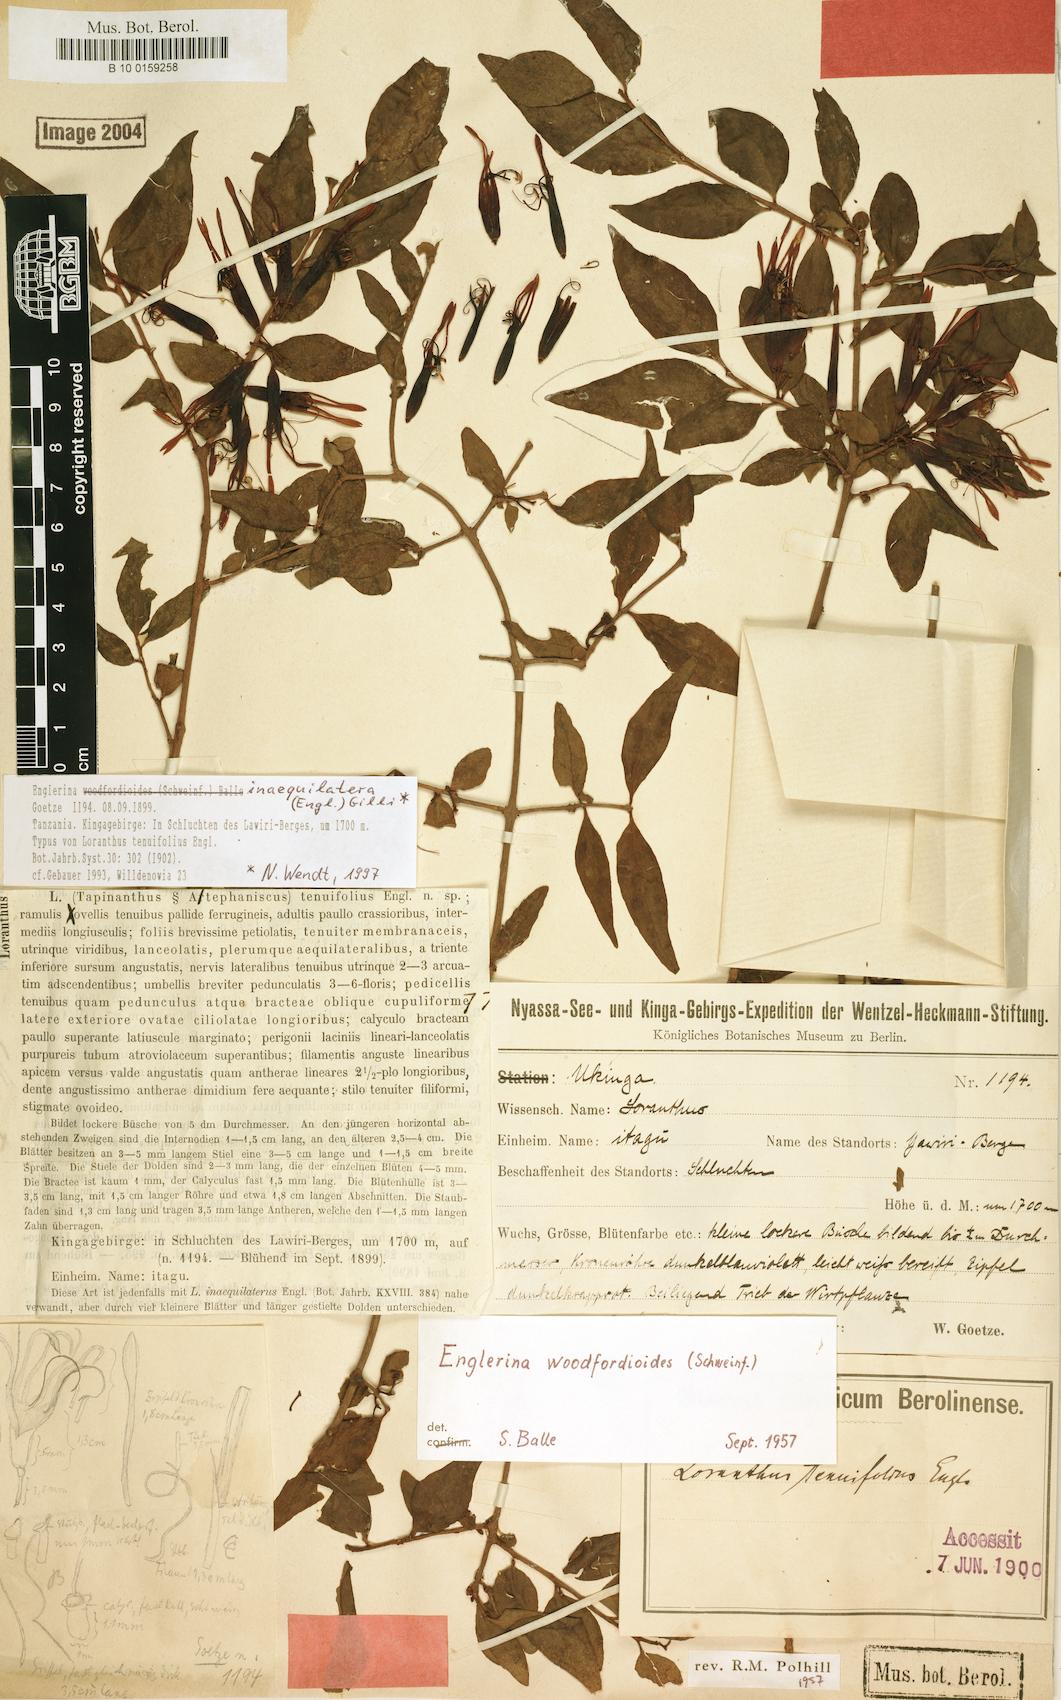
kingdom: Plantae
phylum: Tracheophyta
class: Magnoliopsida
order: Santalales
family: Loranthaceae
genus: Englerina
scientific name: Englerina inaequilatera
